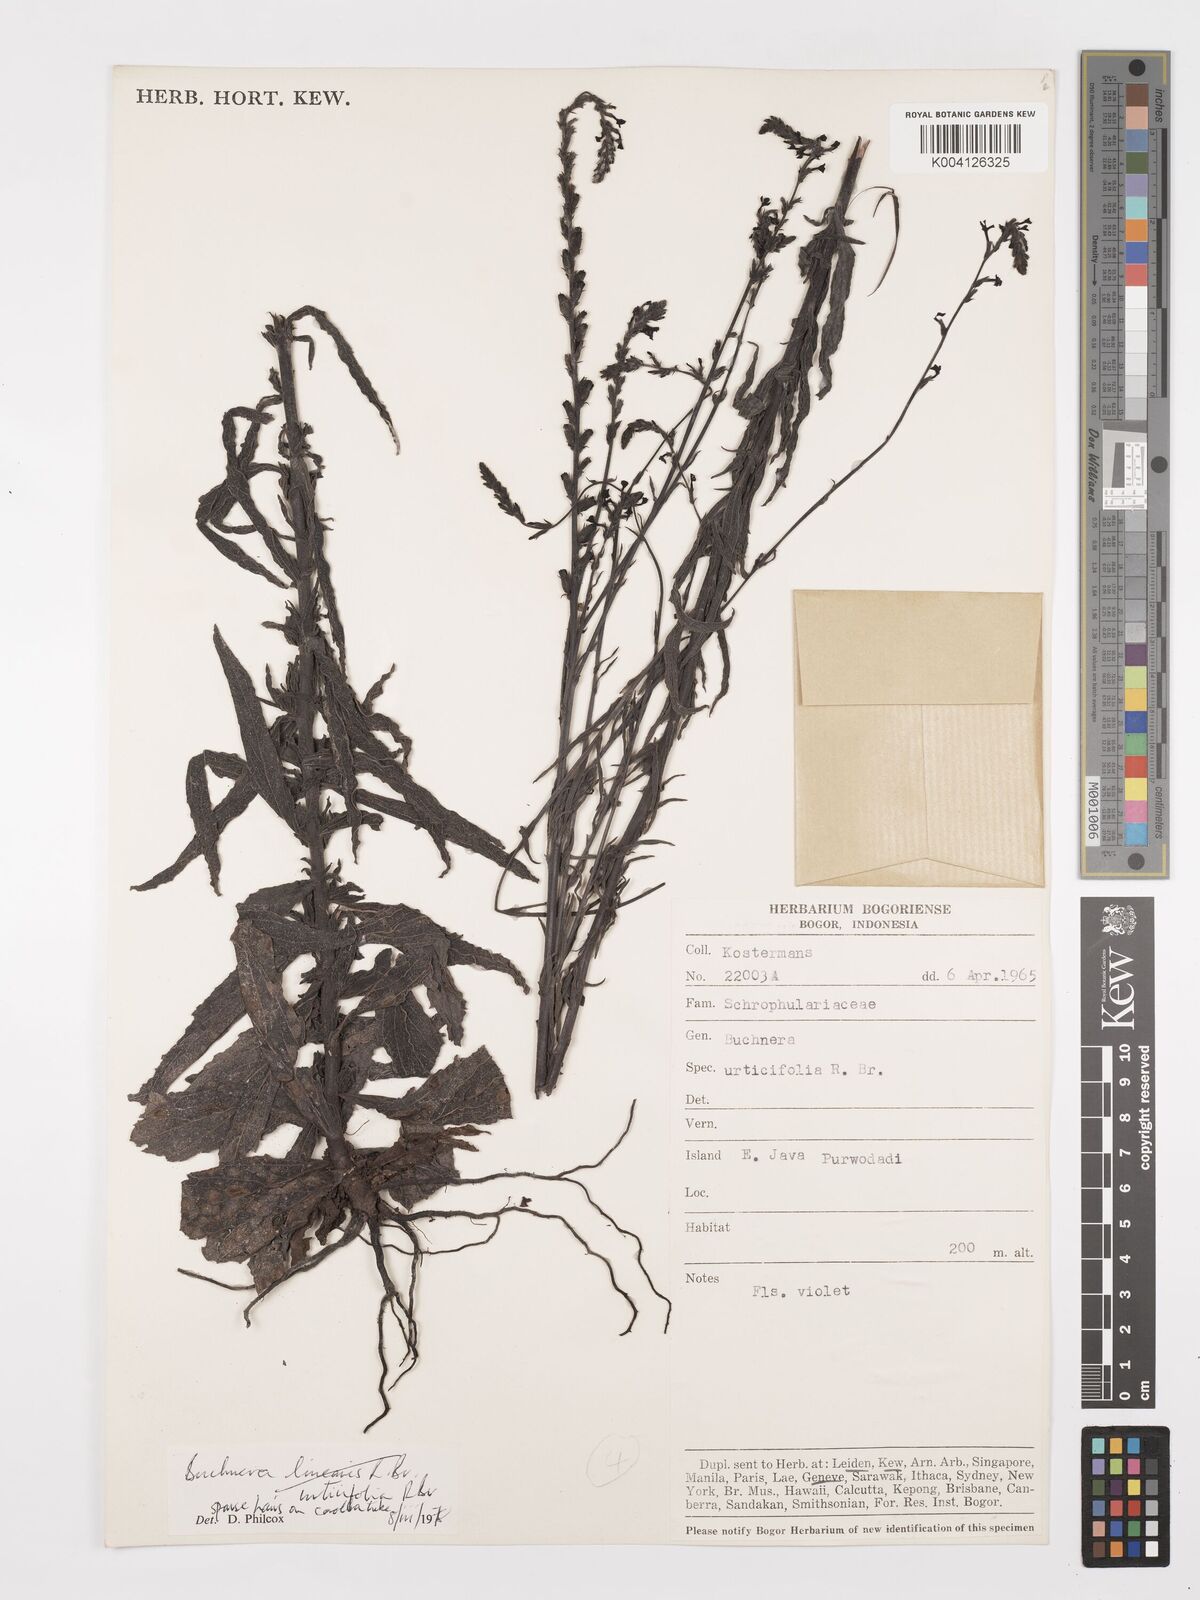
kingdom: Plantae
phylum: Tracheophyta
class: Magnoliopsida
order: Lamiales
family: Orobanchaceae
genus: Buchnera
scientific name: Buchnera urticifolia
